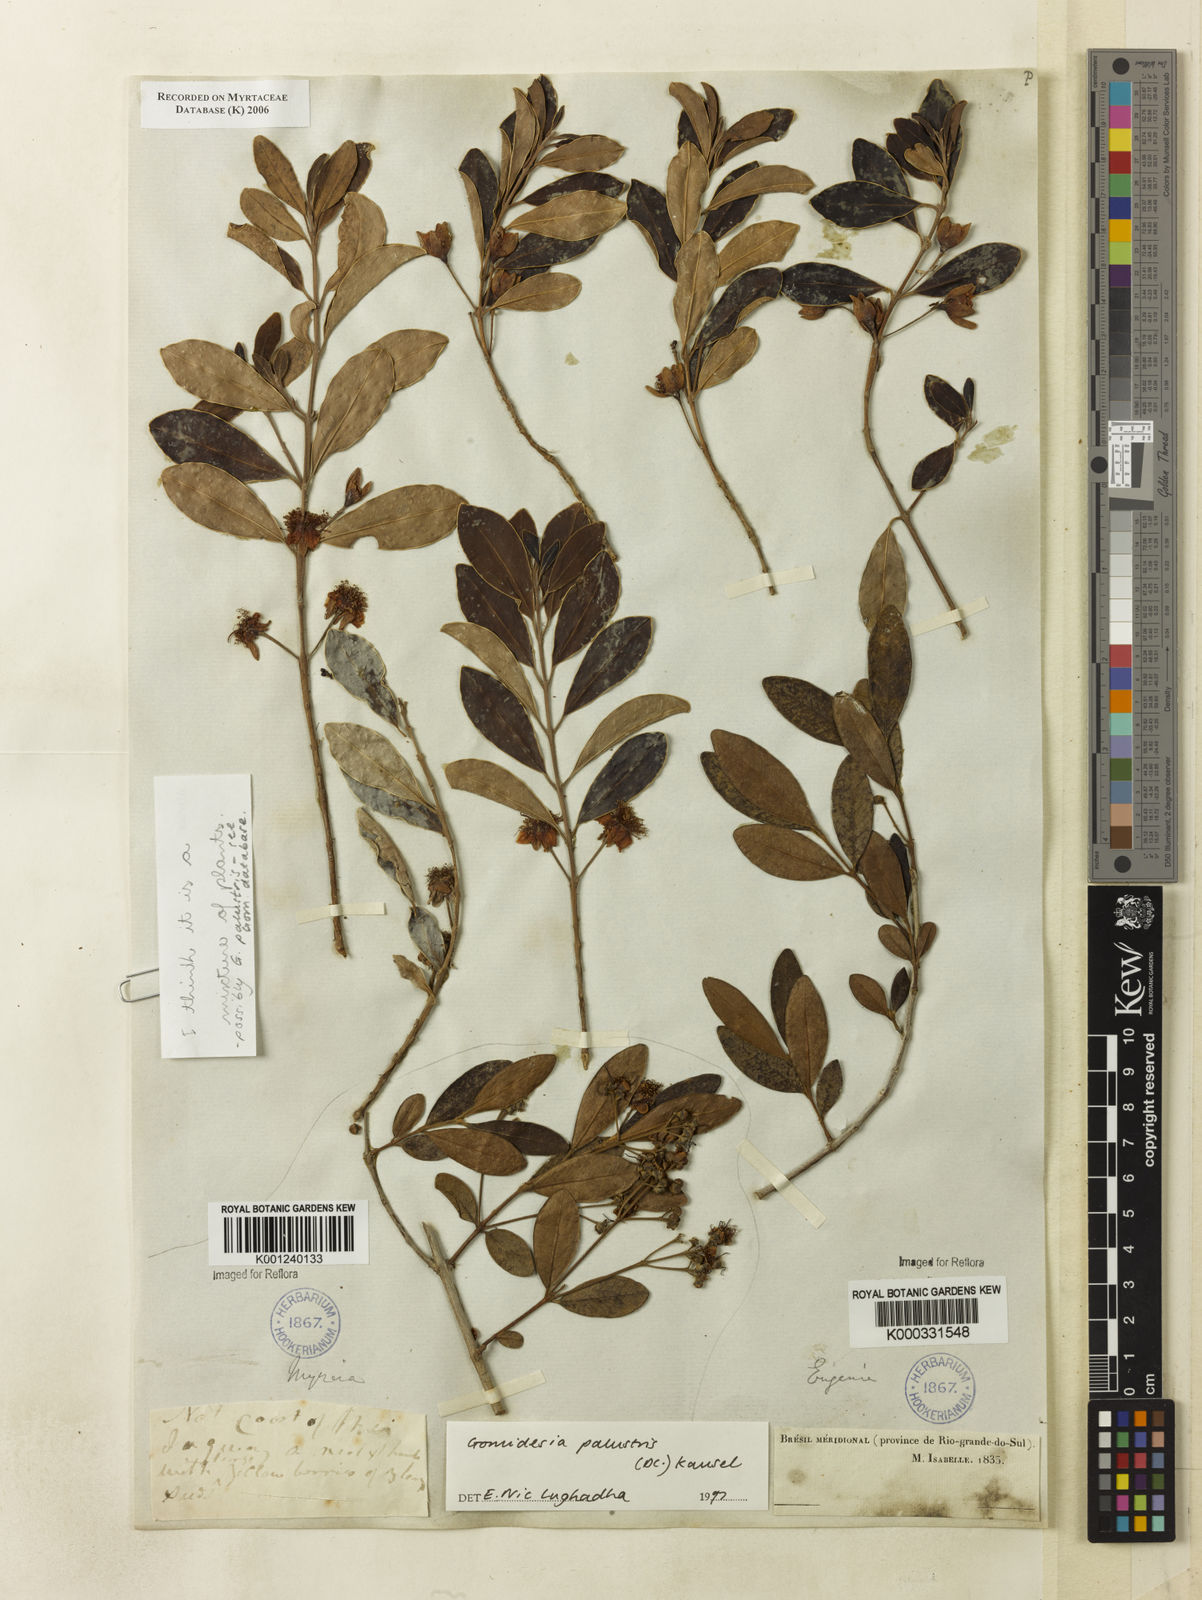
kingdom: Plantae
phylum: Tracheophyta
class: Magnoliopsida
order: Myrtales
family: Myrtaceae
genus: Myrcia
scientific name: Myrcia palustris
